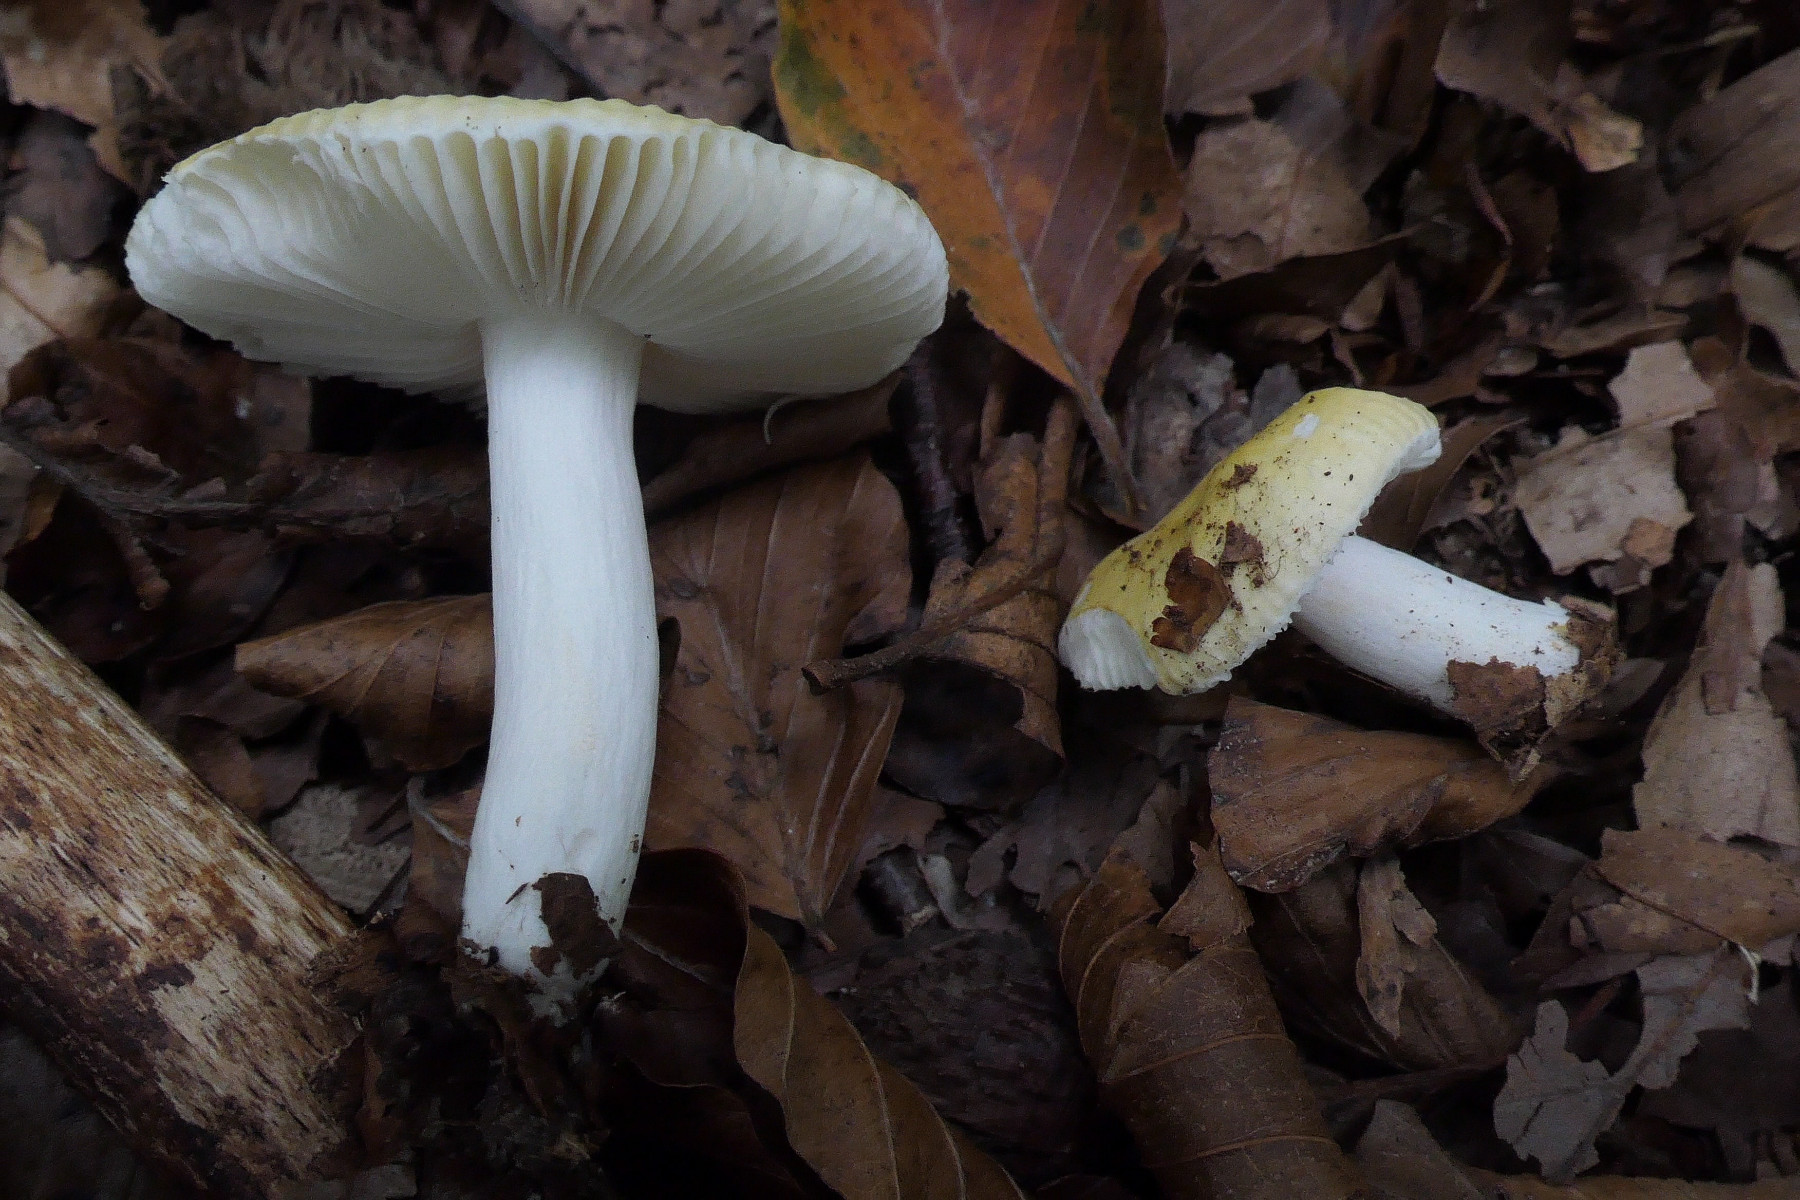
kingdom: Fungi
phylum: Basidiomycota
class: Agaricomycetes
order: Russulales
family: Russulaceae
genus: Russula
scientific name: Russula solaris
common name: sol-skørhat
